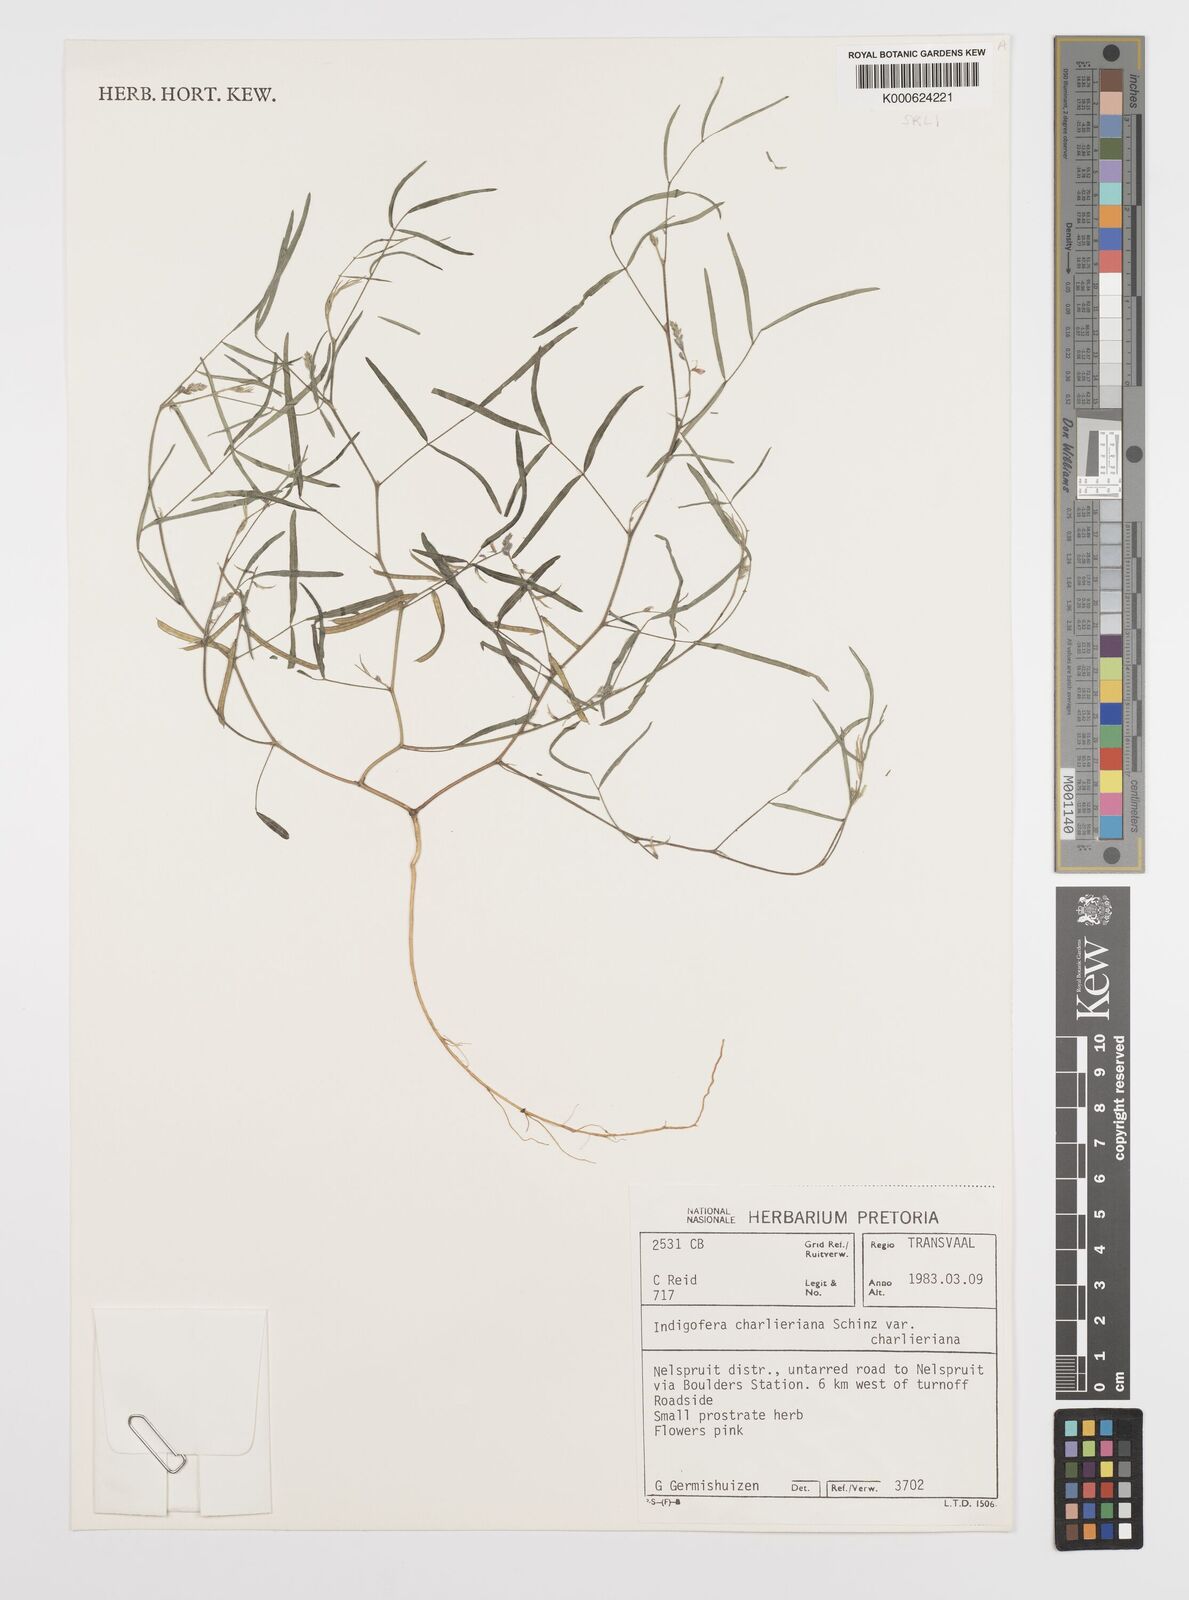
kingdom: Plantae
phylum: Tracheophyta
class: Magnoliopsida
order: Fabales
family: Fabaceae
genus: Indigofera
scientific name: Indigofera charlieriana
